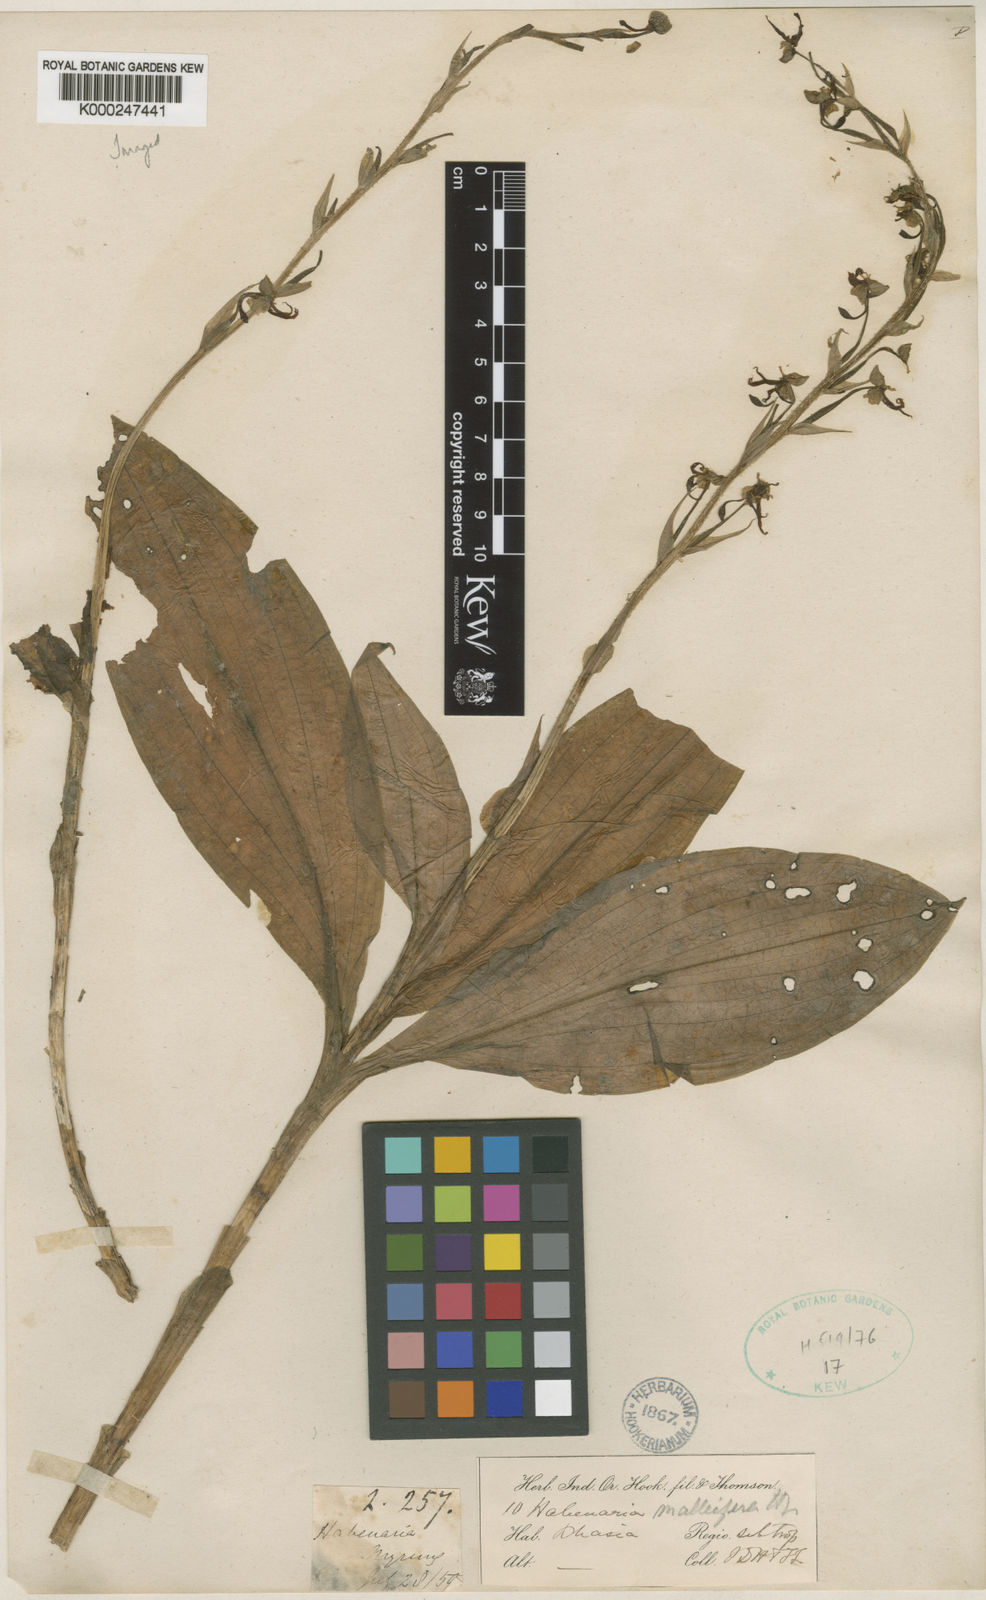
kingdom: Plantae
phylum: Tracheophyta
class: Liliopsida
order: Asparagales
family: Orchidaceae
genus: Habenaria
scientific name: Habenaria malleifera
